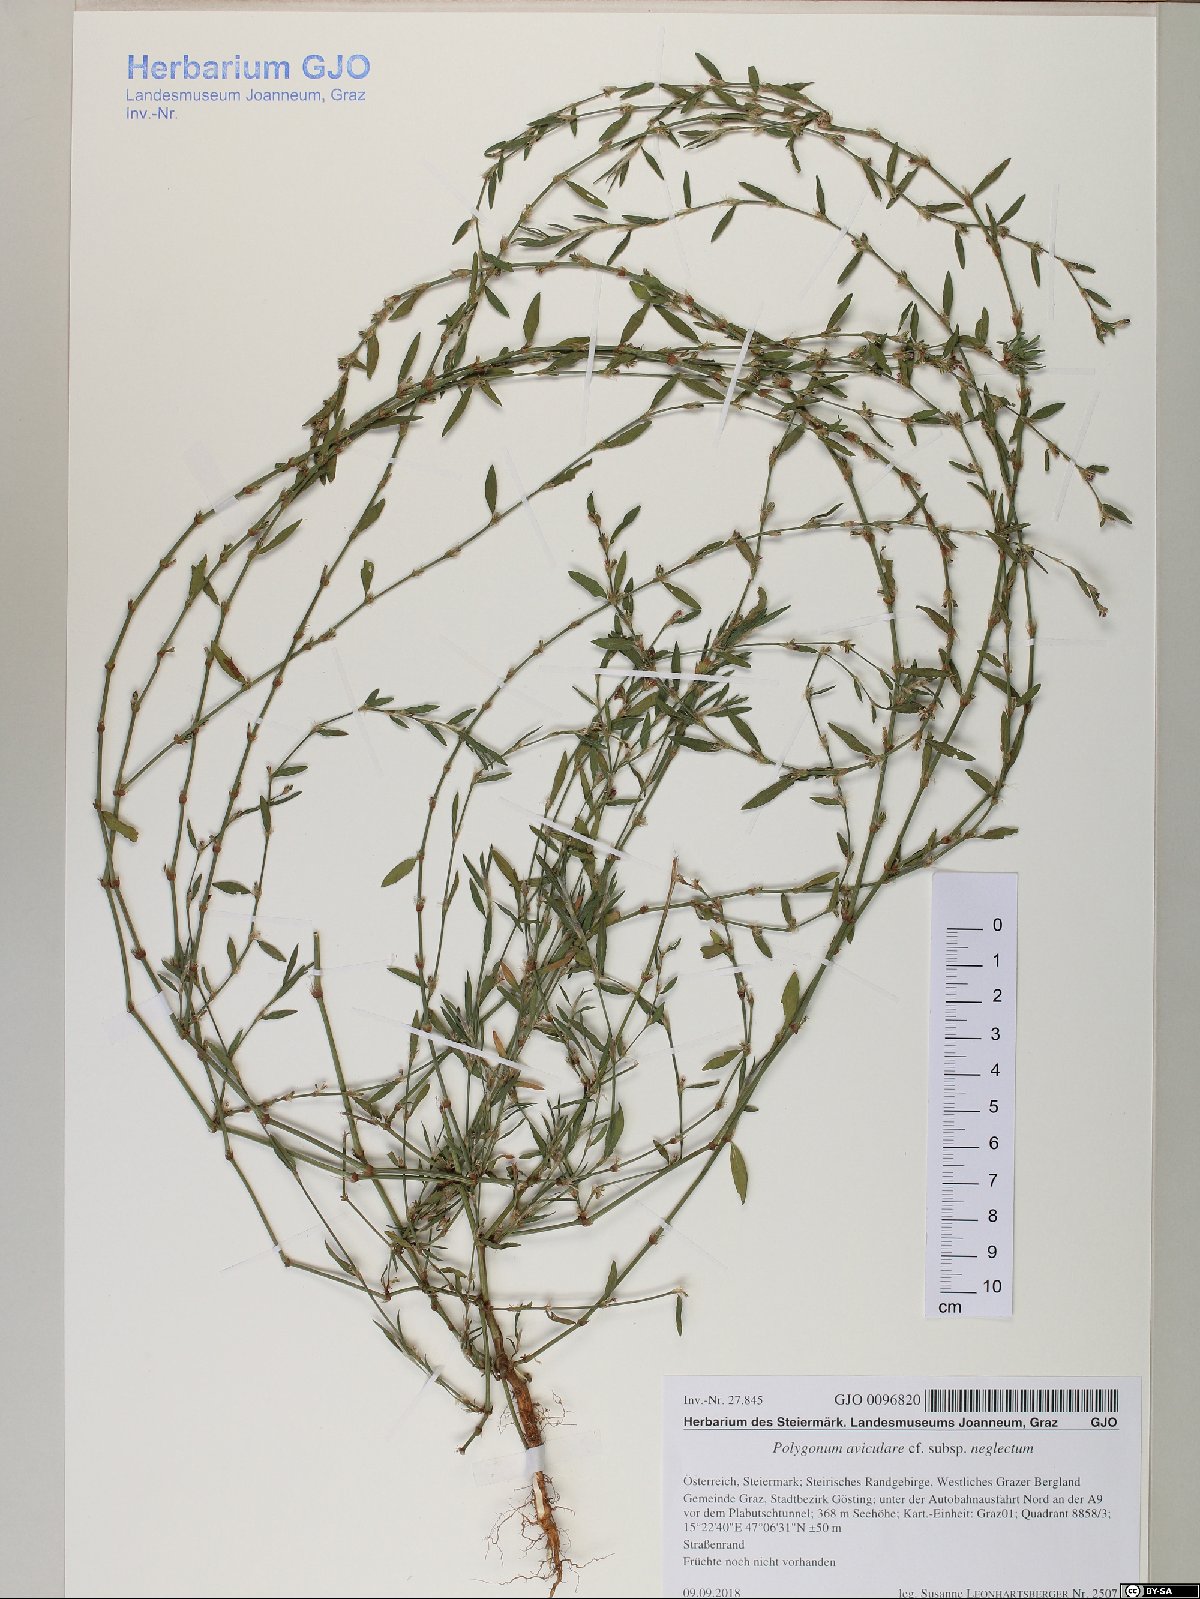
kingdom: Plantae
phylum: Tracheophyta
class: Magnoliopsida
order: Caryophyllales
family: Polygonaceae
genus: Polygonum
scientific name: Polygonum aviculare
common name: Prostrate knotweed
